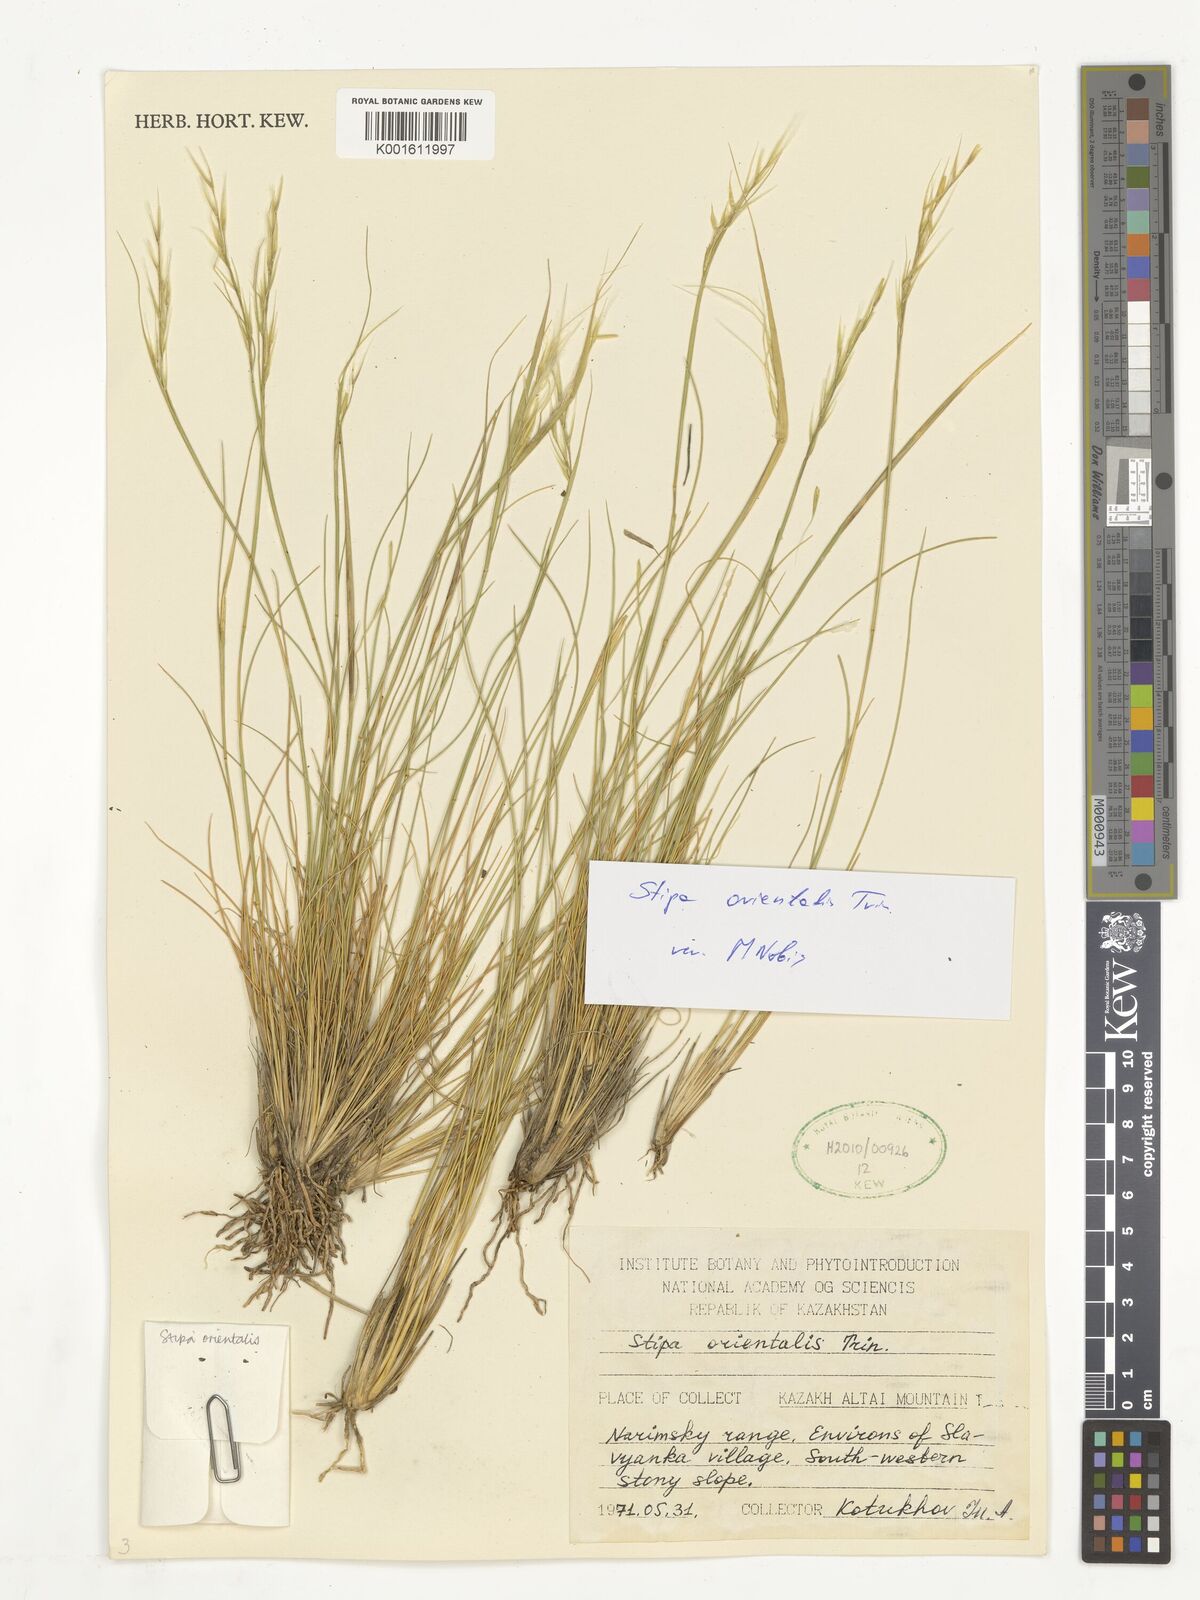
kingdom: Plantae
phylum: Tracheophyta
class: Liliopsida
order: Poales
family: Poaceae
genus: Stipa
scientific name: Stipa orientalis
